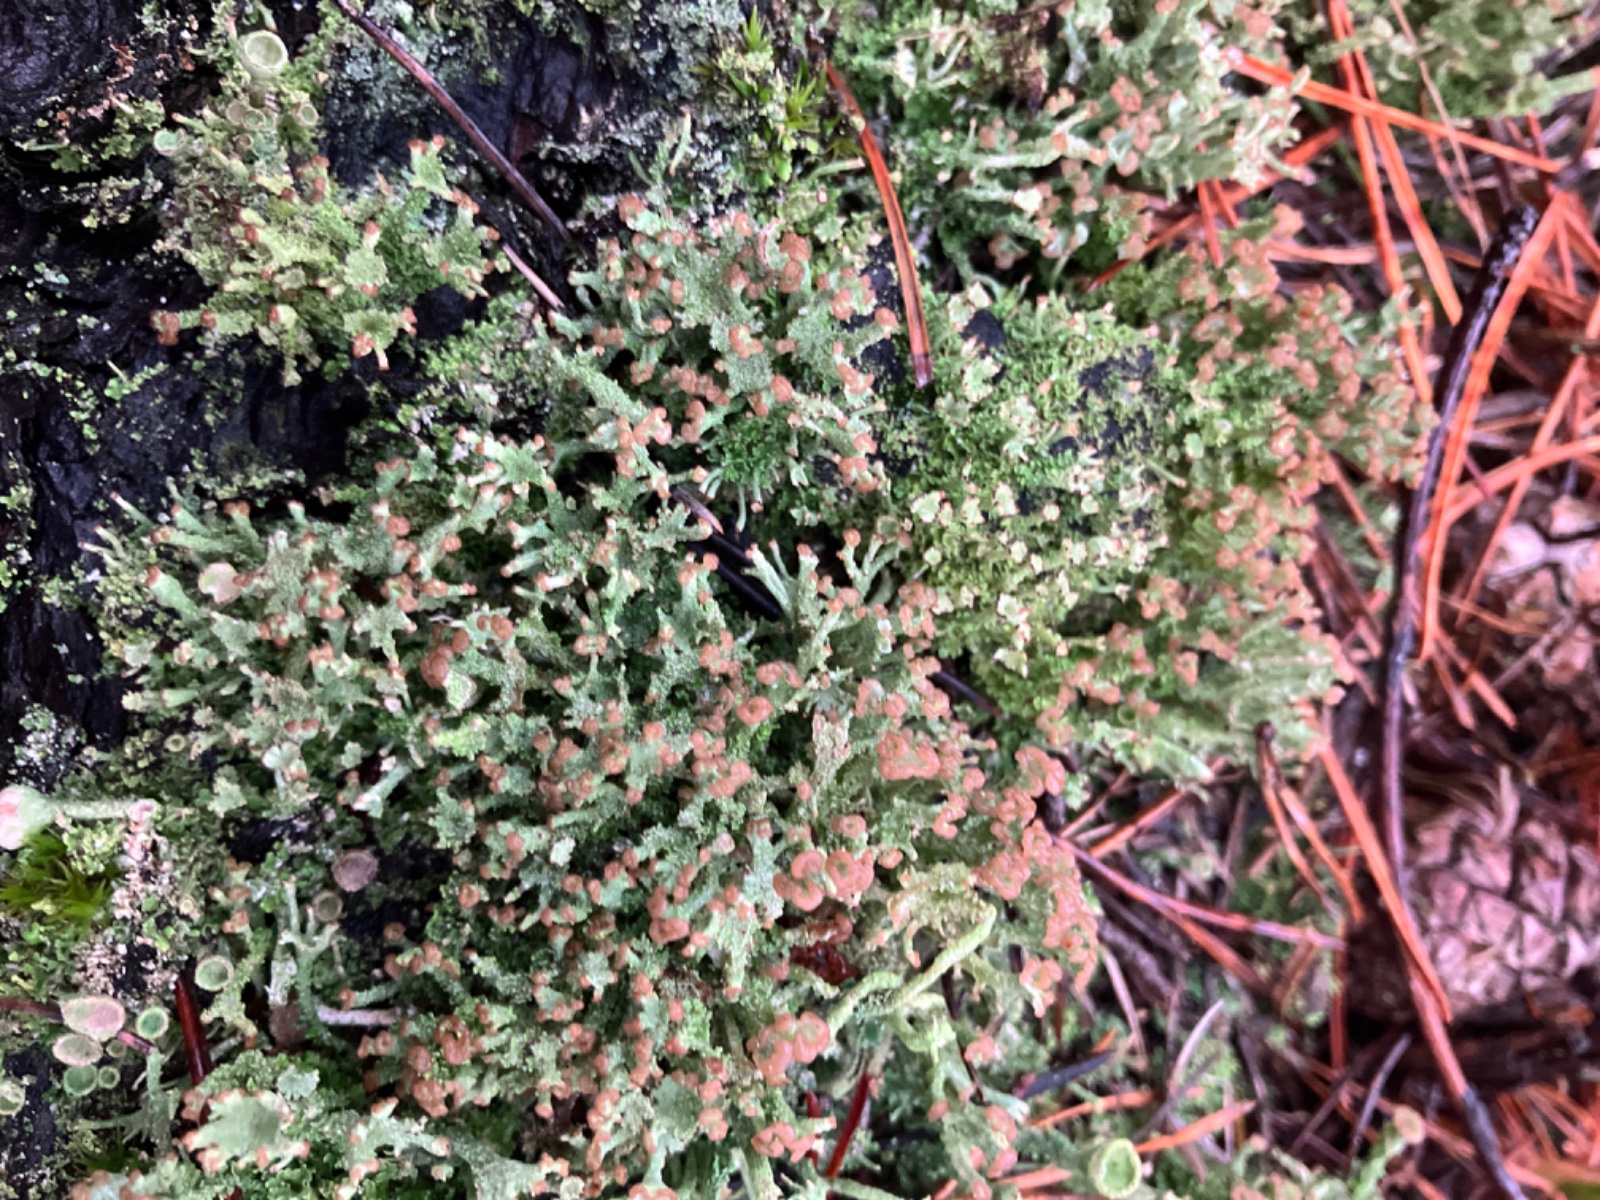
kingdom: Fungi
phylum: Ascomycota
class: Lecanoromycetes
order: Lecanorales
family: Cladoniaceae
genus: Cladonia
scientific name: Cladonia ramulosa
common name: kliddet bægerlav
